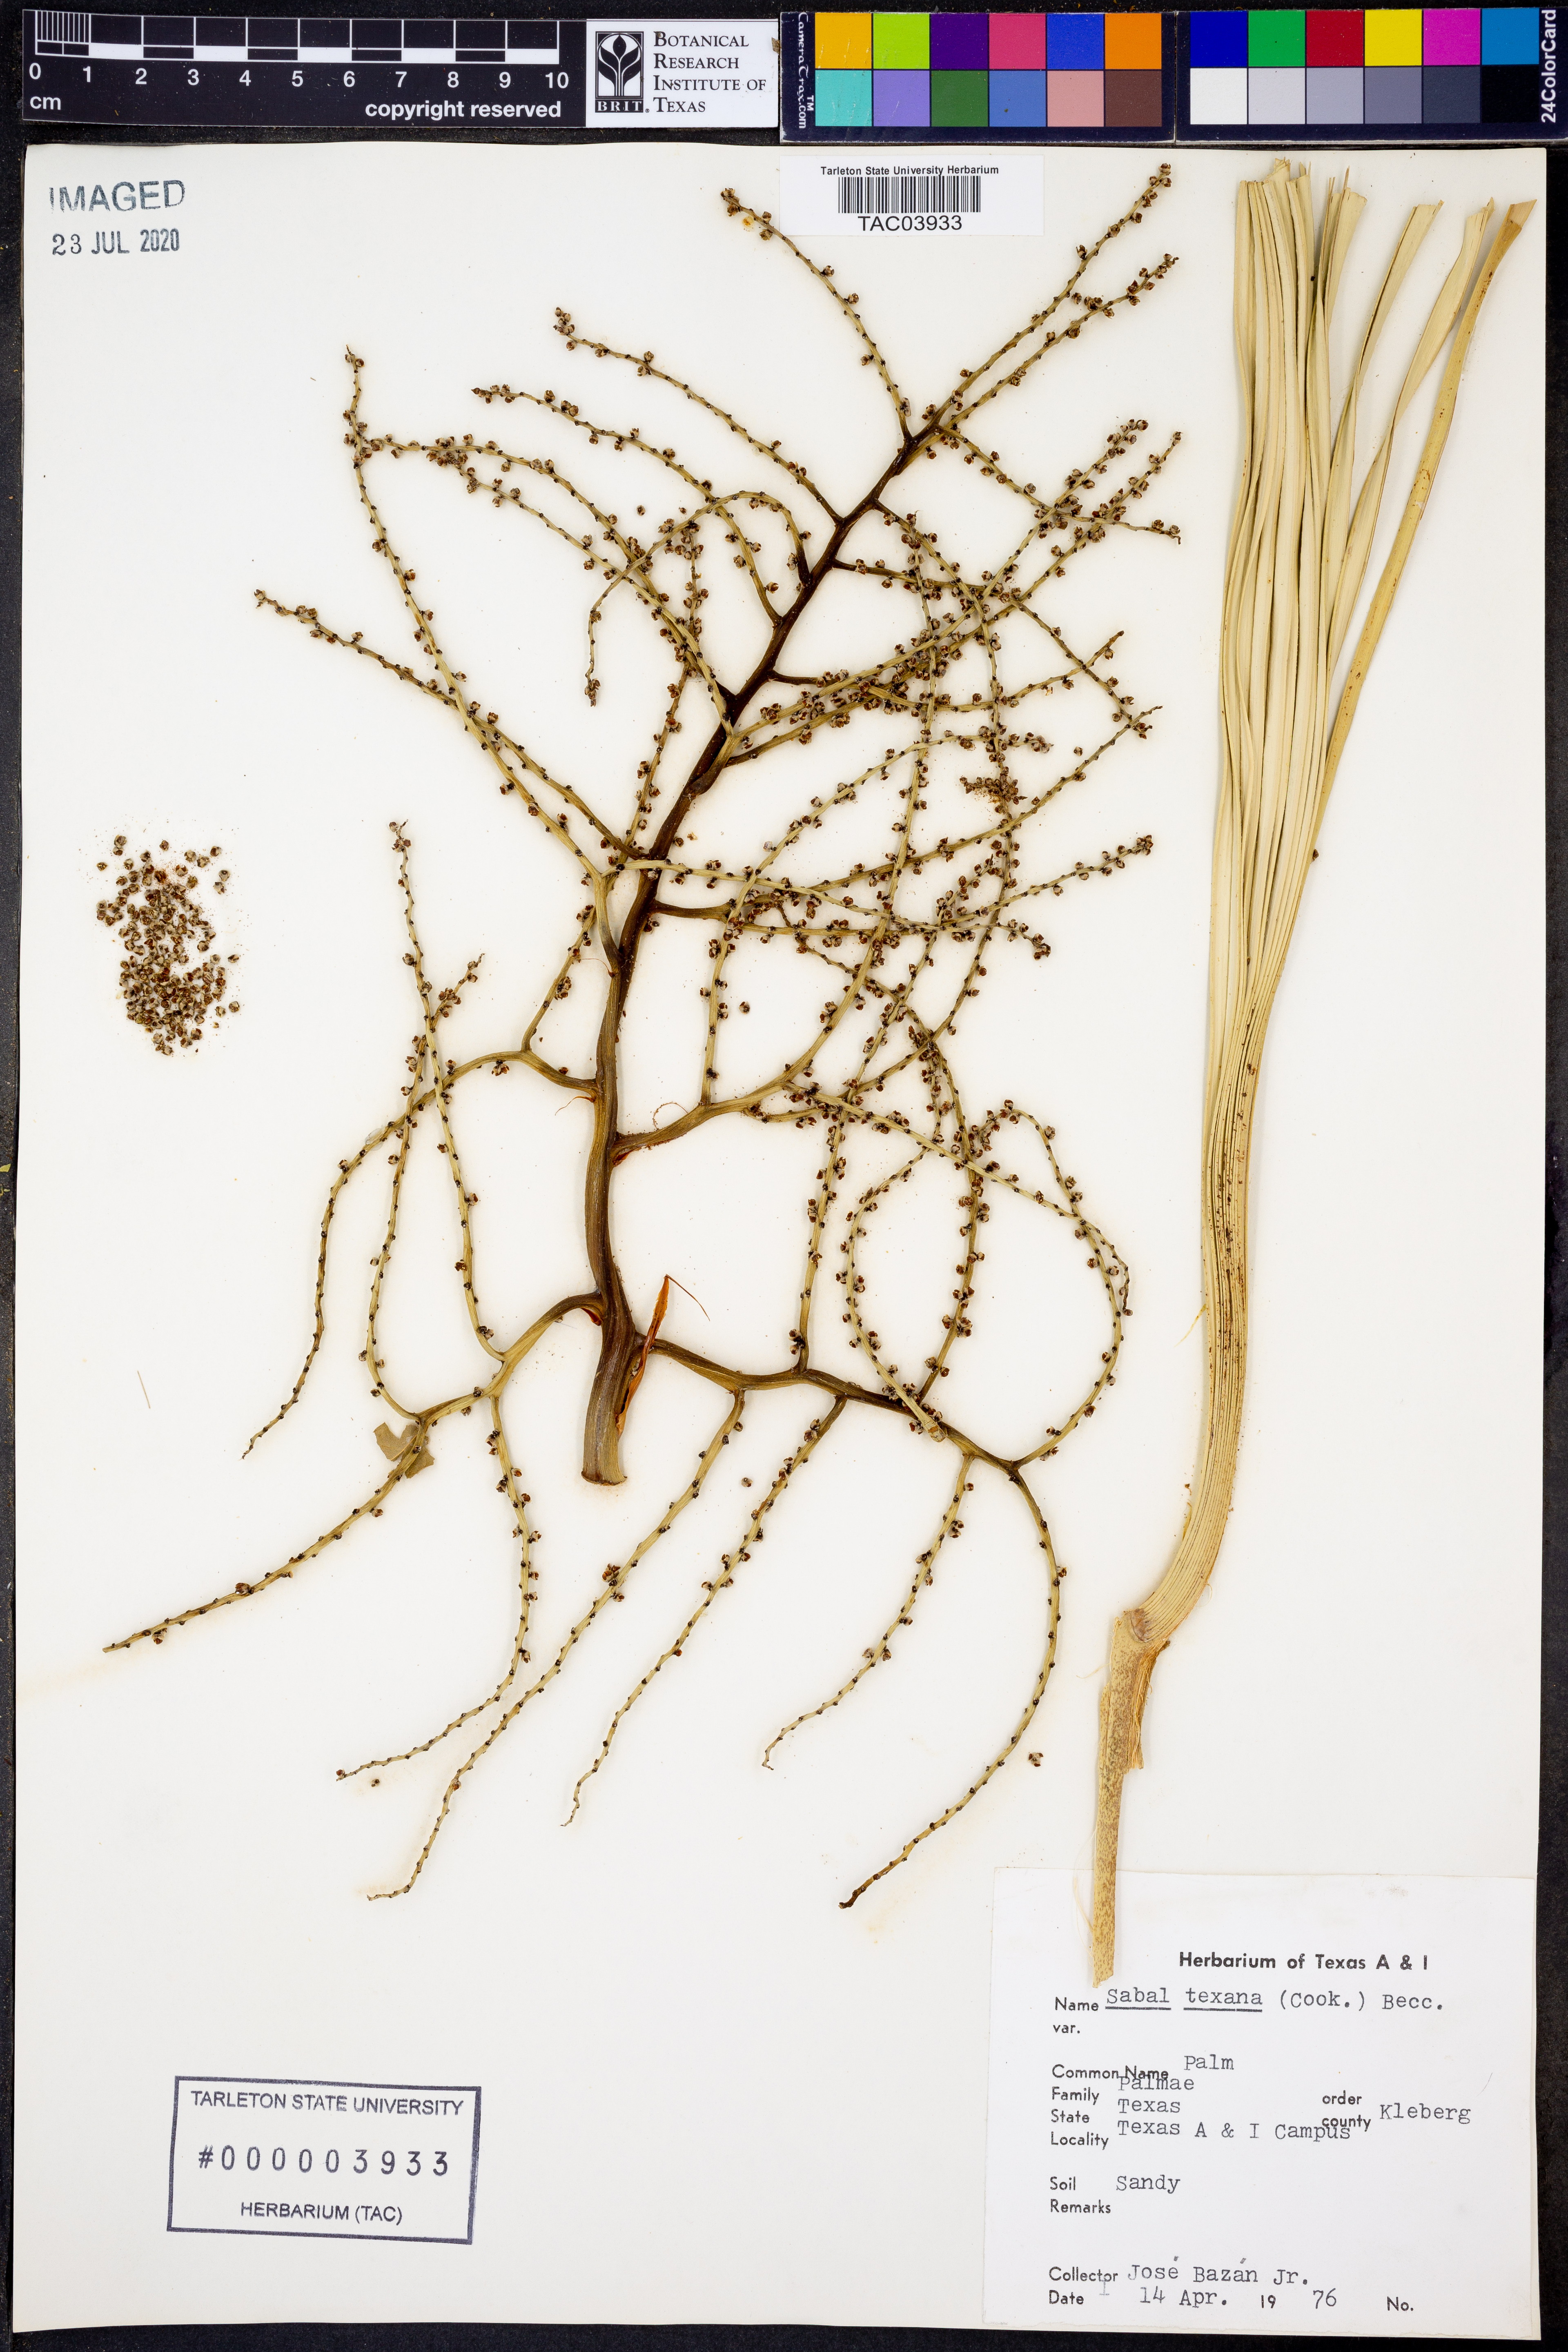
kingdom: Plantae
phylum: Tracheophyta
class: Liliopsida
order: Arecales
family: Arecaceae
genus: Sabal
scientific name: Sabal mexicana
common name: Texas palmetto
